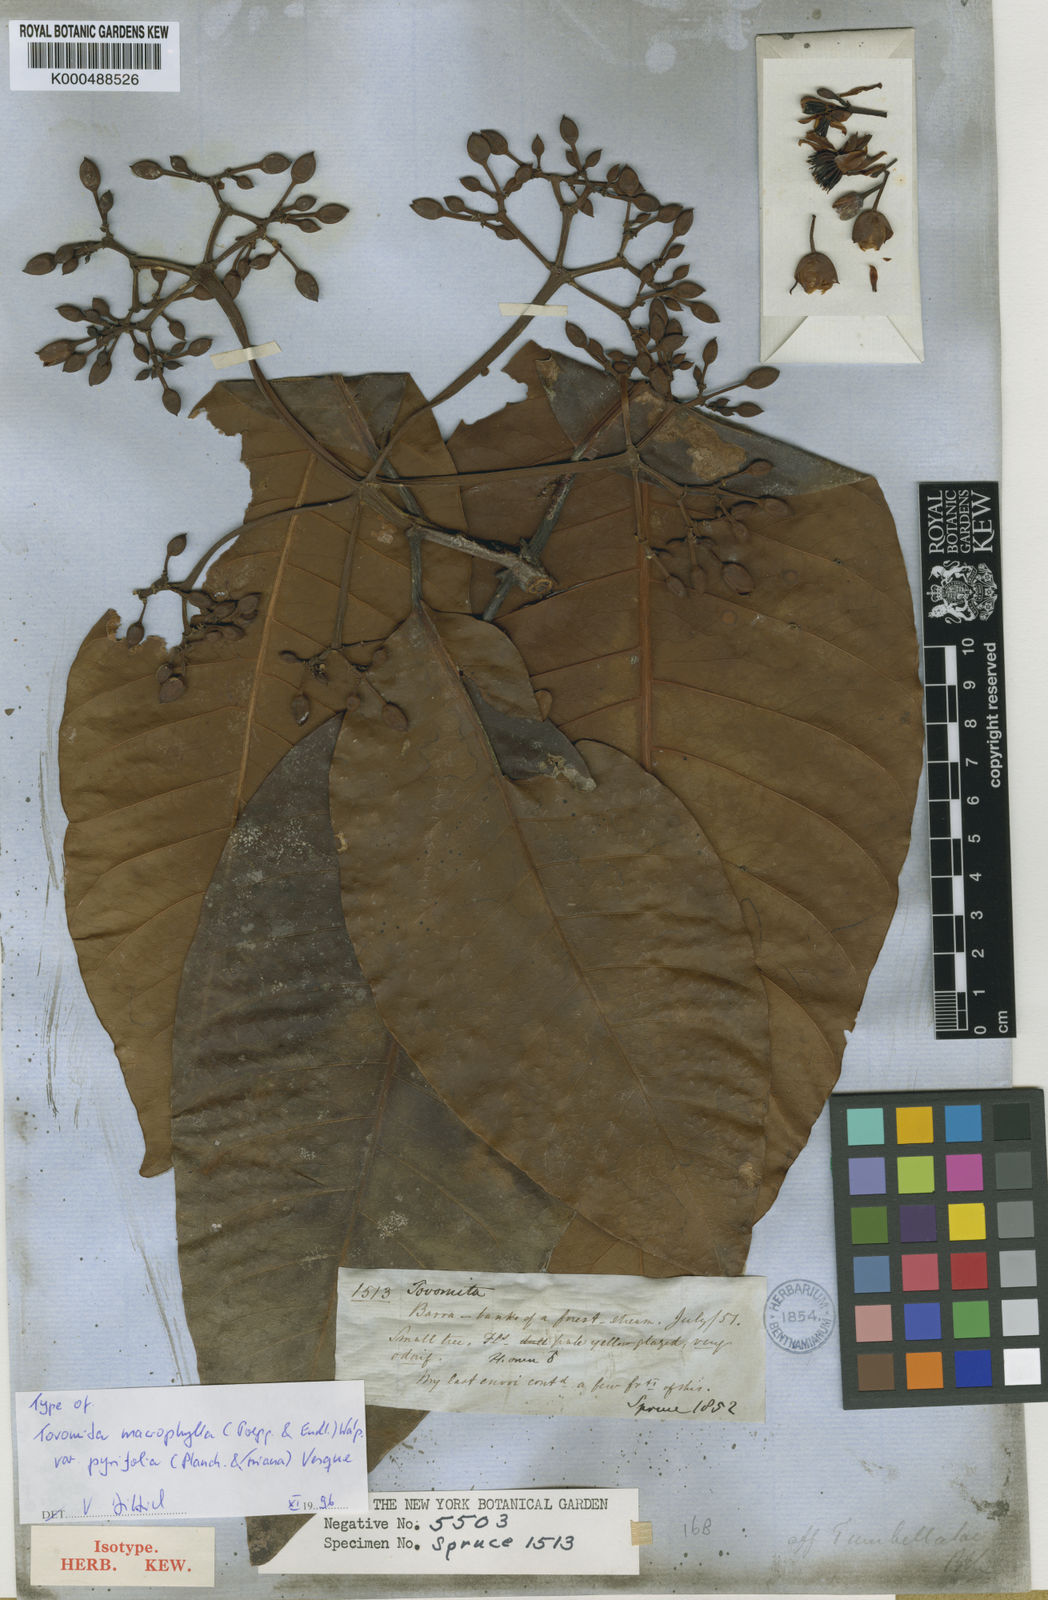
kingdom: Plantae
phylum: Tracheophyta
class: Magnoliopsida
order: Malpighiales
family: Clusiaceae
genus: Tovomita
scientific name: Tovomita macrophylla
